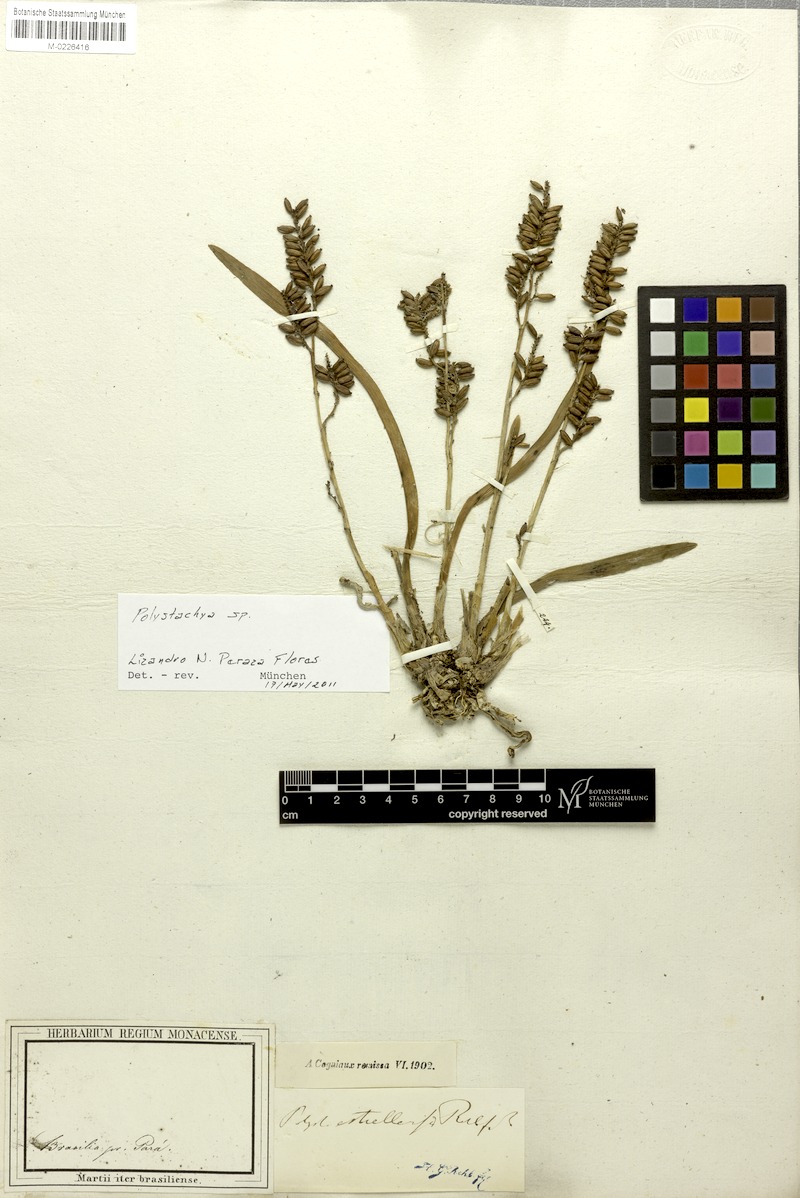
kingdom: Plantae
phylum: Tracheophyta
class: Liliopsida
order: Asparagales
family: Orchidaceae
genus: Polystachya
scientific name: Polystachya foliosa
